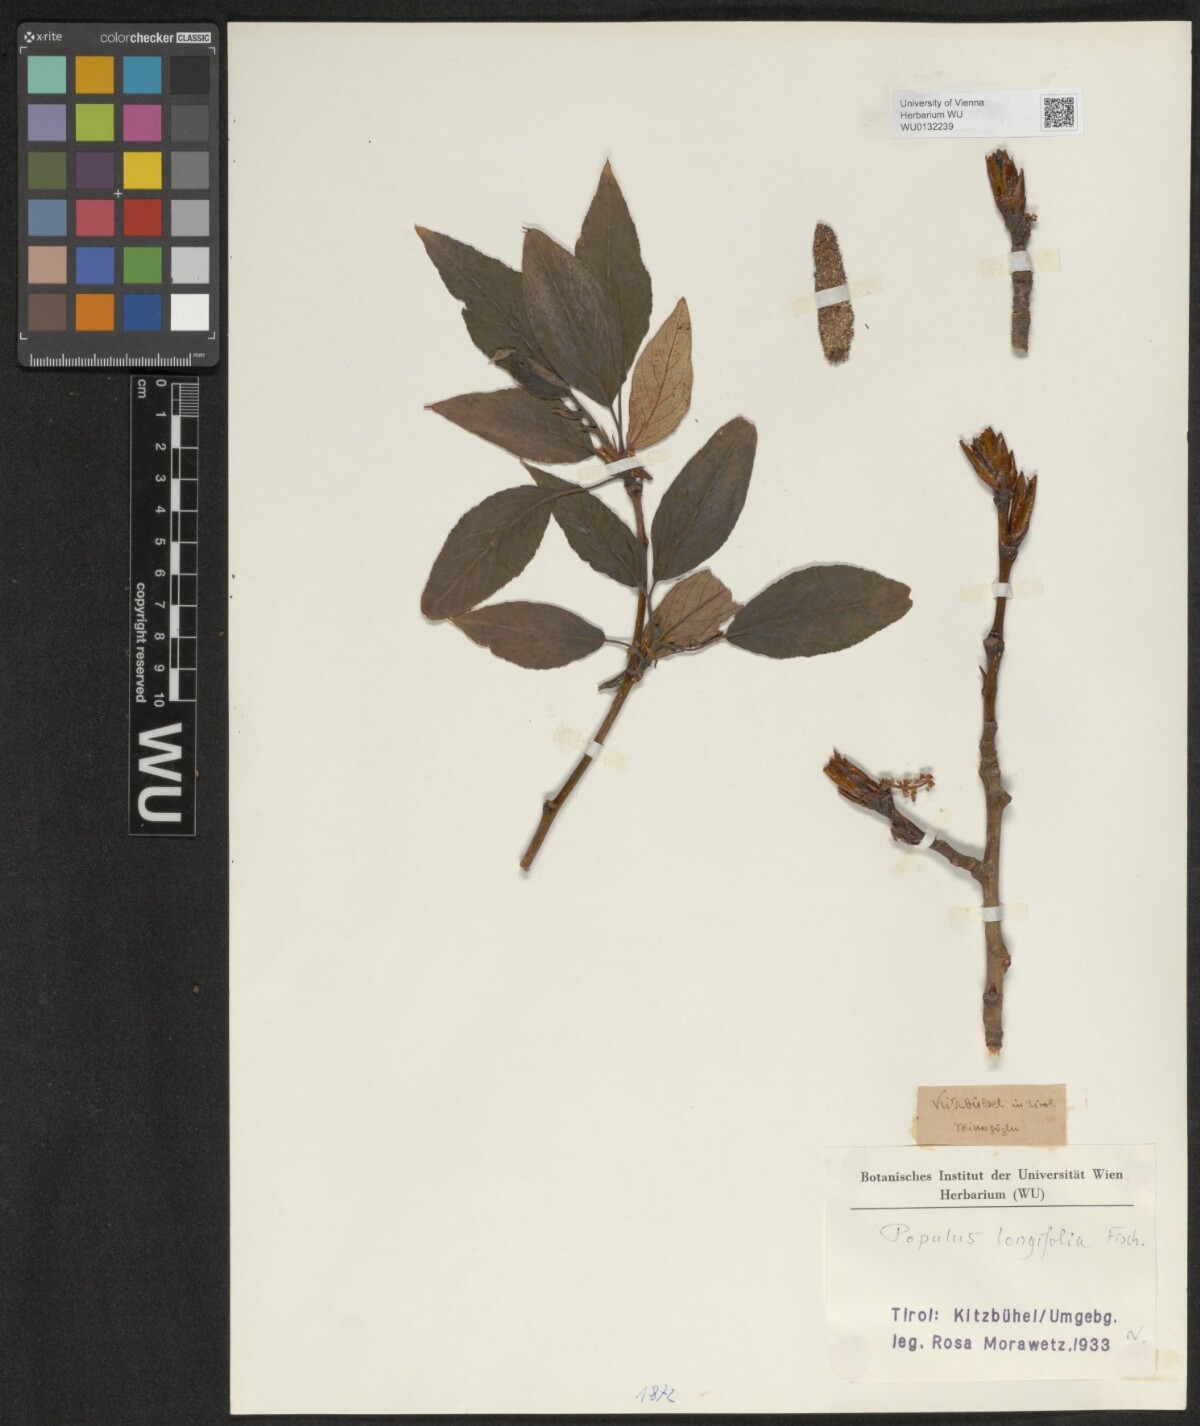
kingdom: Plantae
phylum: Tracheophyta
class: Magnoliopsida
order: Malpighiales
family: Salicaceae
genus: Populus
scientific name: Populus balsamifera
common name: Balsam poplar
